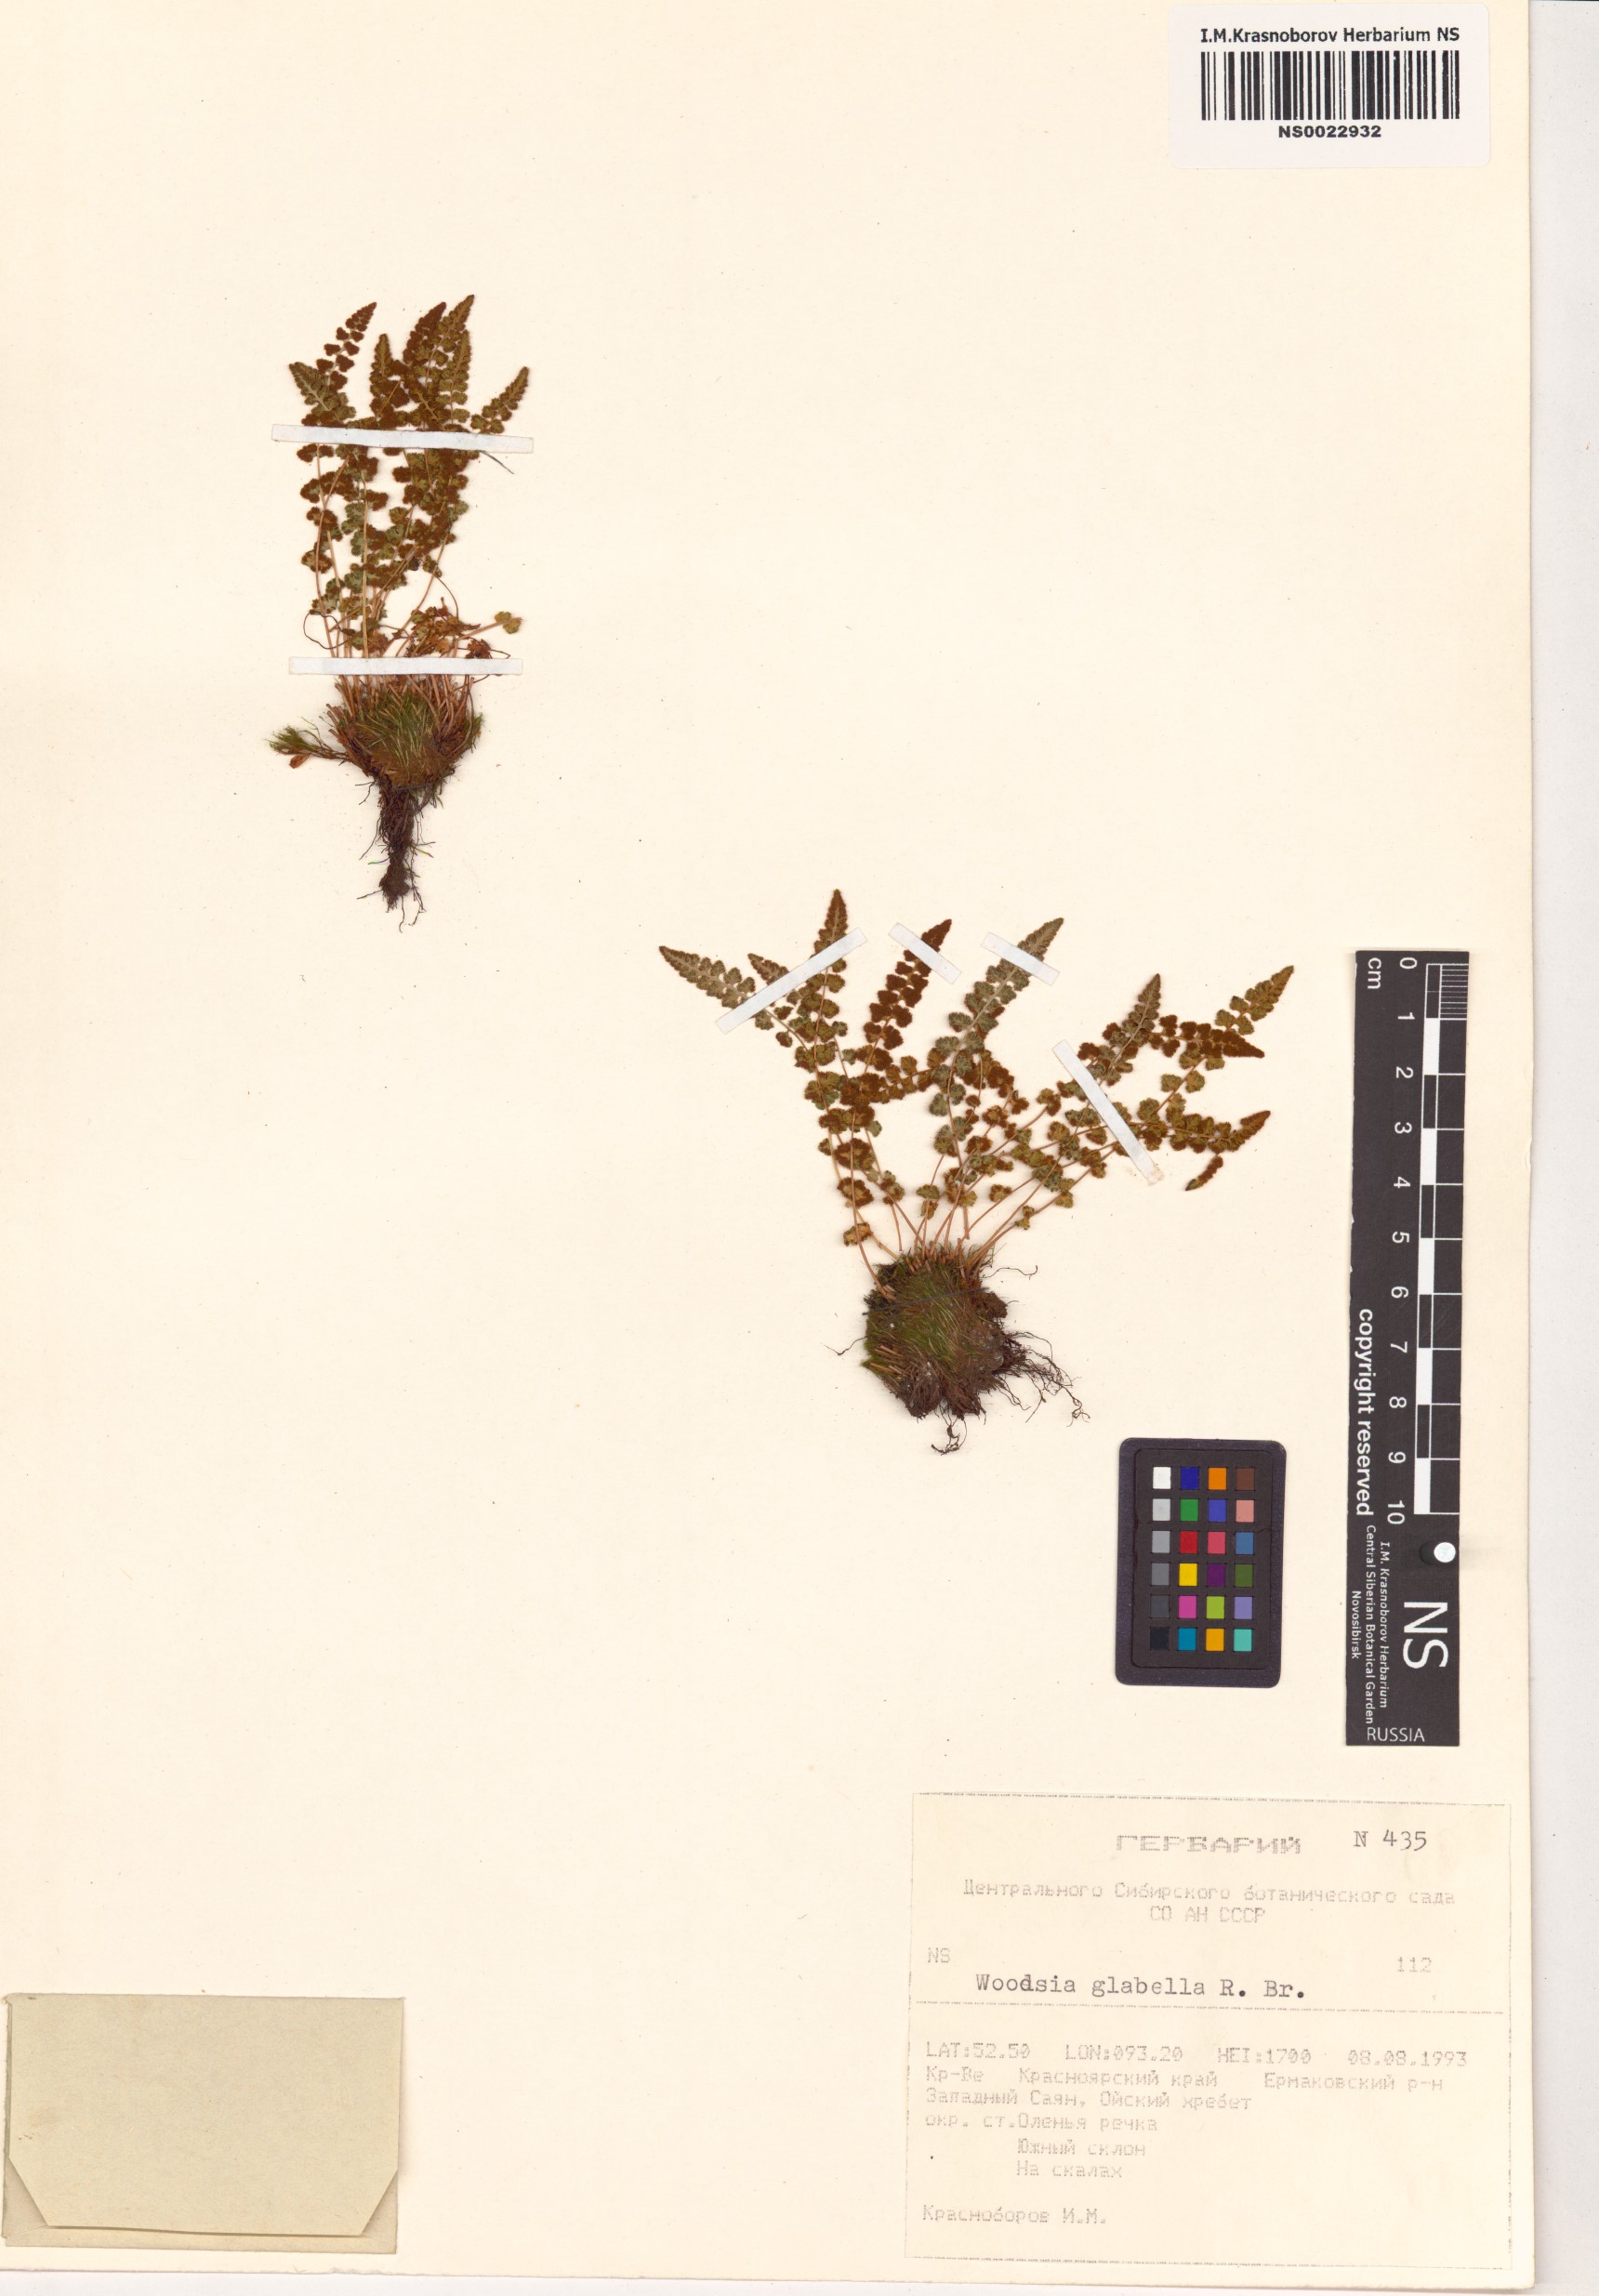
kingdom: Plantae
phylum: Tracheophyta
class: Polypodiopsida
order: Polypodiales
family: Woodsiaceae
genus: Woodsia
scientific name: Woodsia glabella
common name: Smooth woodsia
